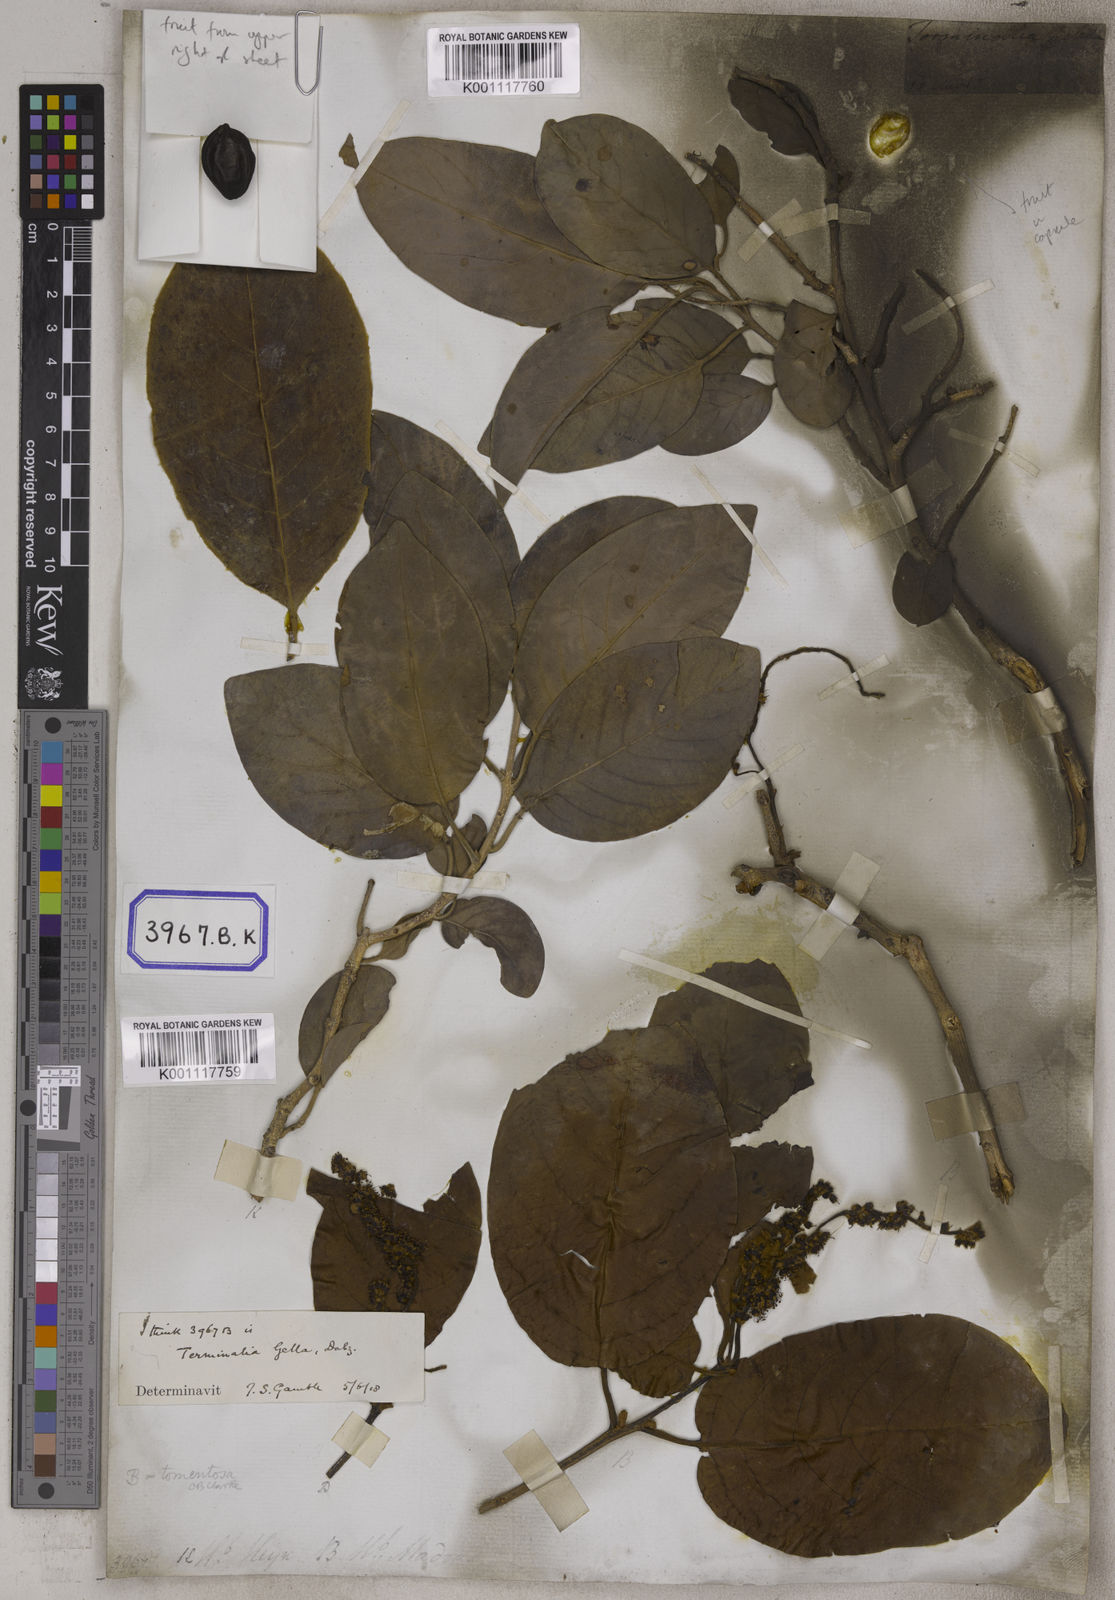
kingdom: Plantae
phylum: Tracheophyta
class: Magnoliopsida
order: Myrtales
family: Combretaceae
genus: Terminalia
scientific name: Terminalia chebula
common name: Myrobalan
